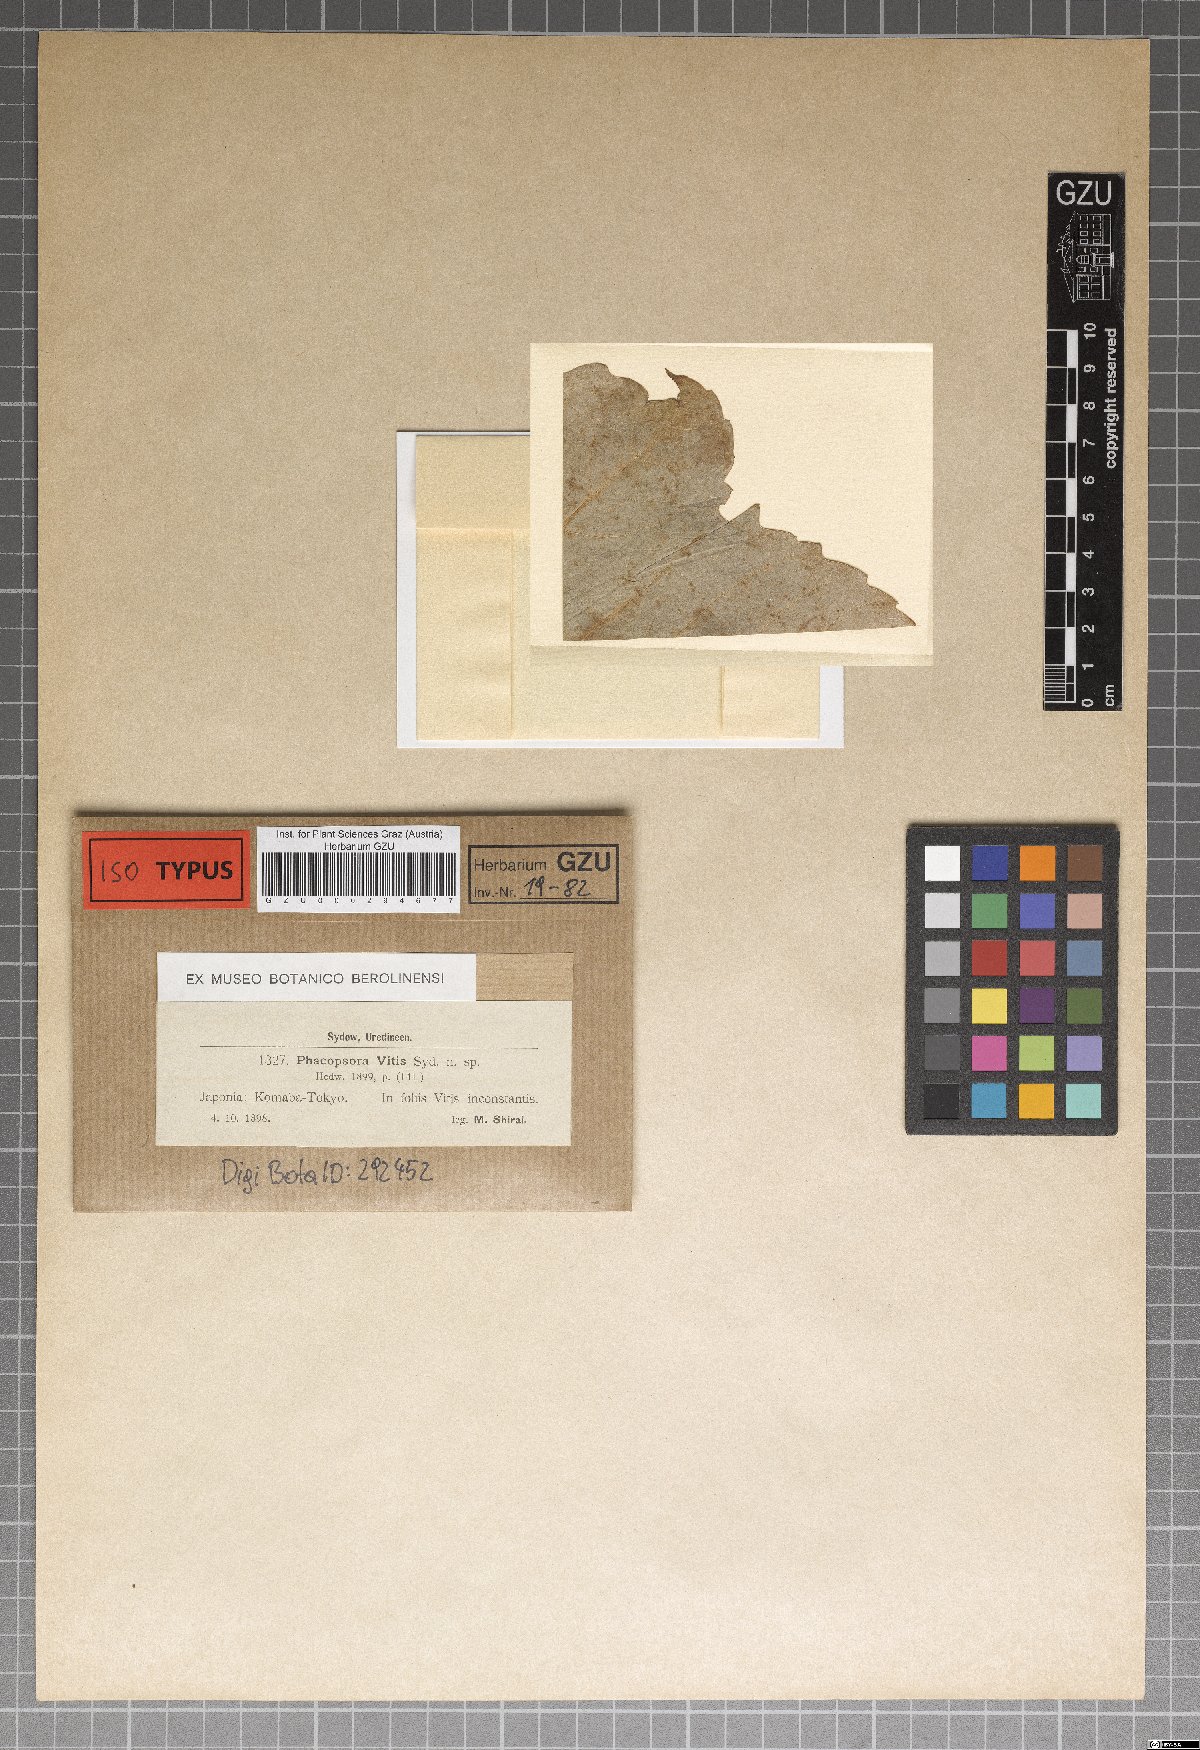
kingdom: Fungi
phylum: Basidiomycota
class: Pucciniomycetes
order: Pucciniales
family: Neophysopellaceae
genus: Neophysopella
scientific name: Neophysopella vitis
